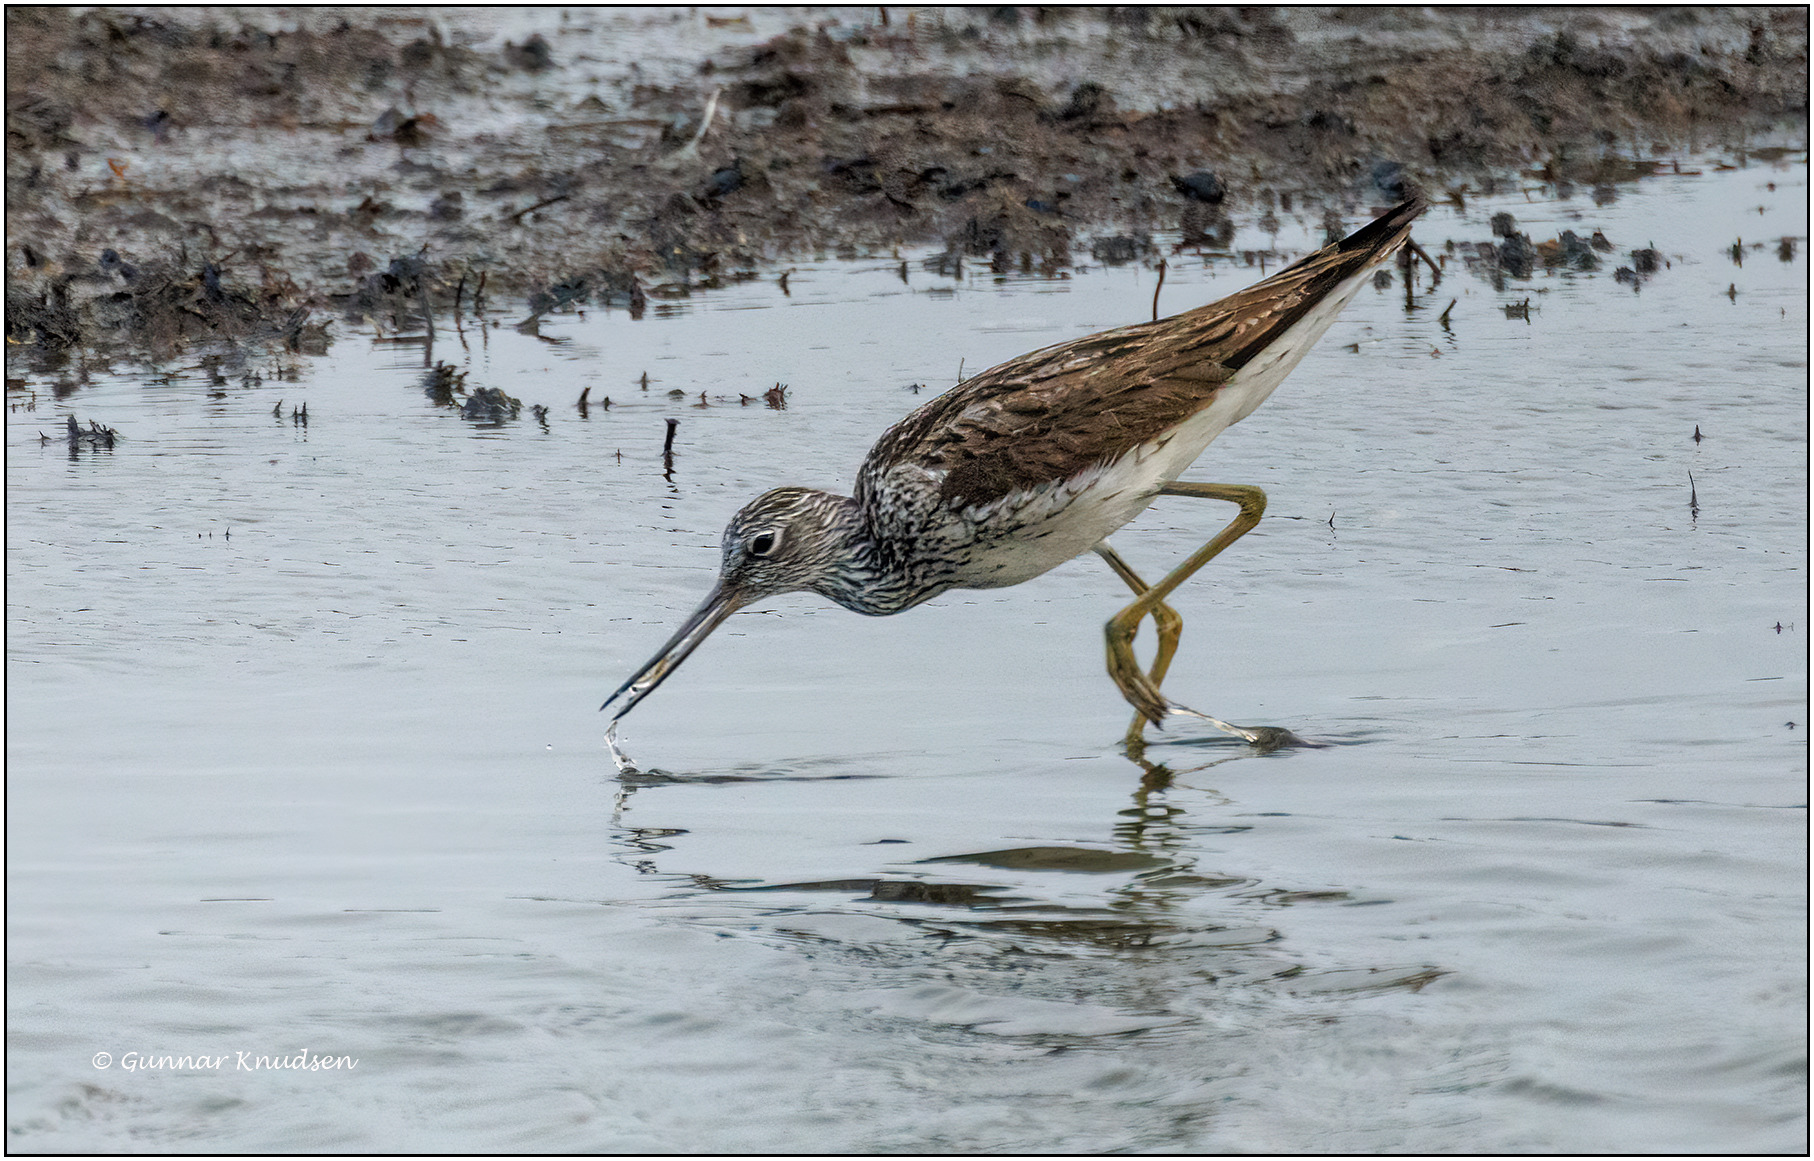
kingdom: Animalia
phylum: Chordata
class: Aves
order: Charadriiformes
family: Scolopacidae
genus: Tringa
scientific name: Tringa nebularia
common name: Hvidklire
